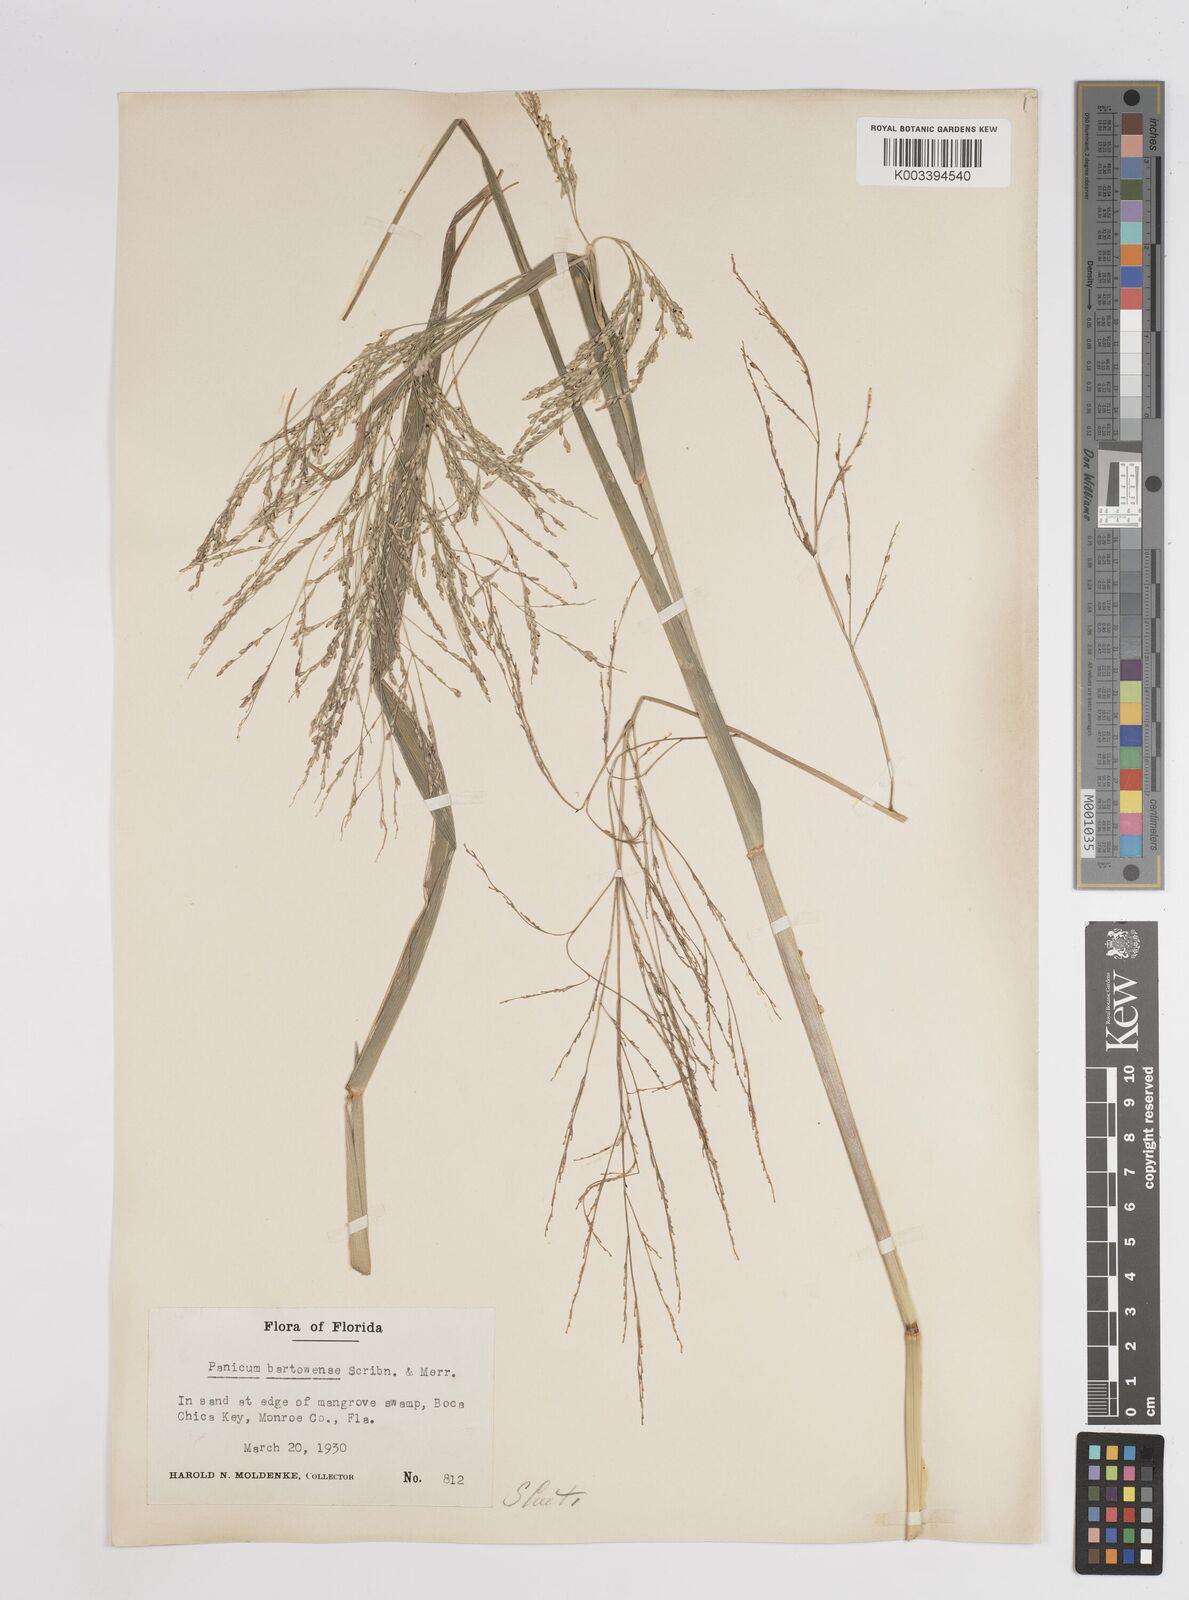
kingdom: Plantae
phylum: Tracheophyta
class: Liliopsida
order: Poales
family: Poaceae
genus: Panicum
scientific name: Panicum bartowense
